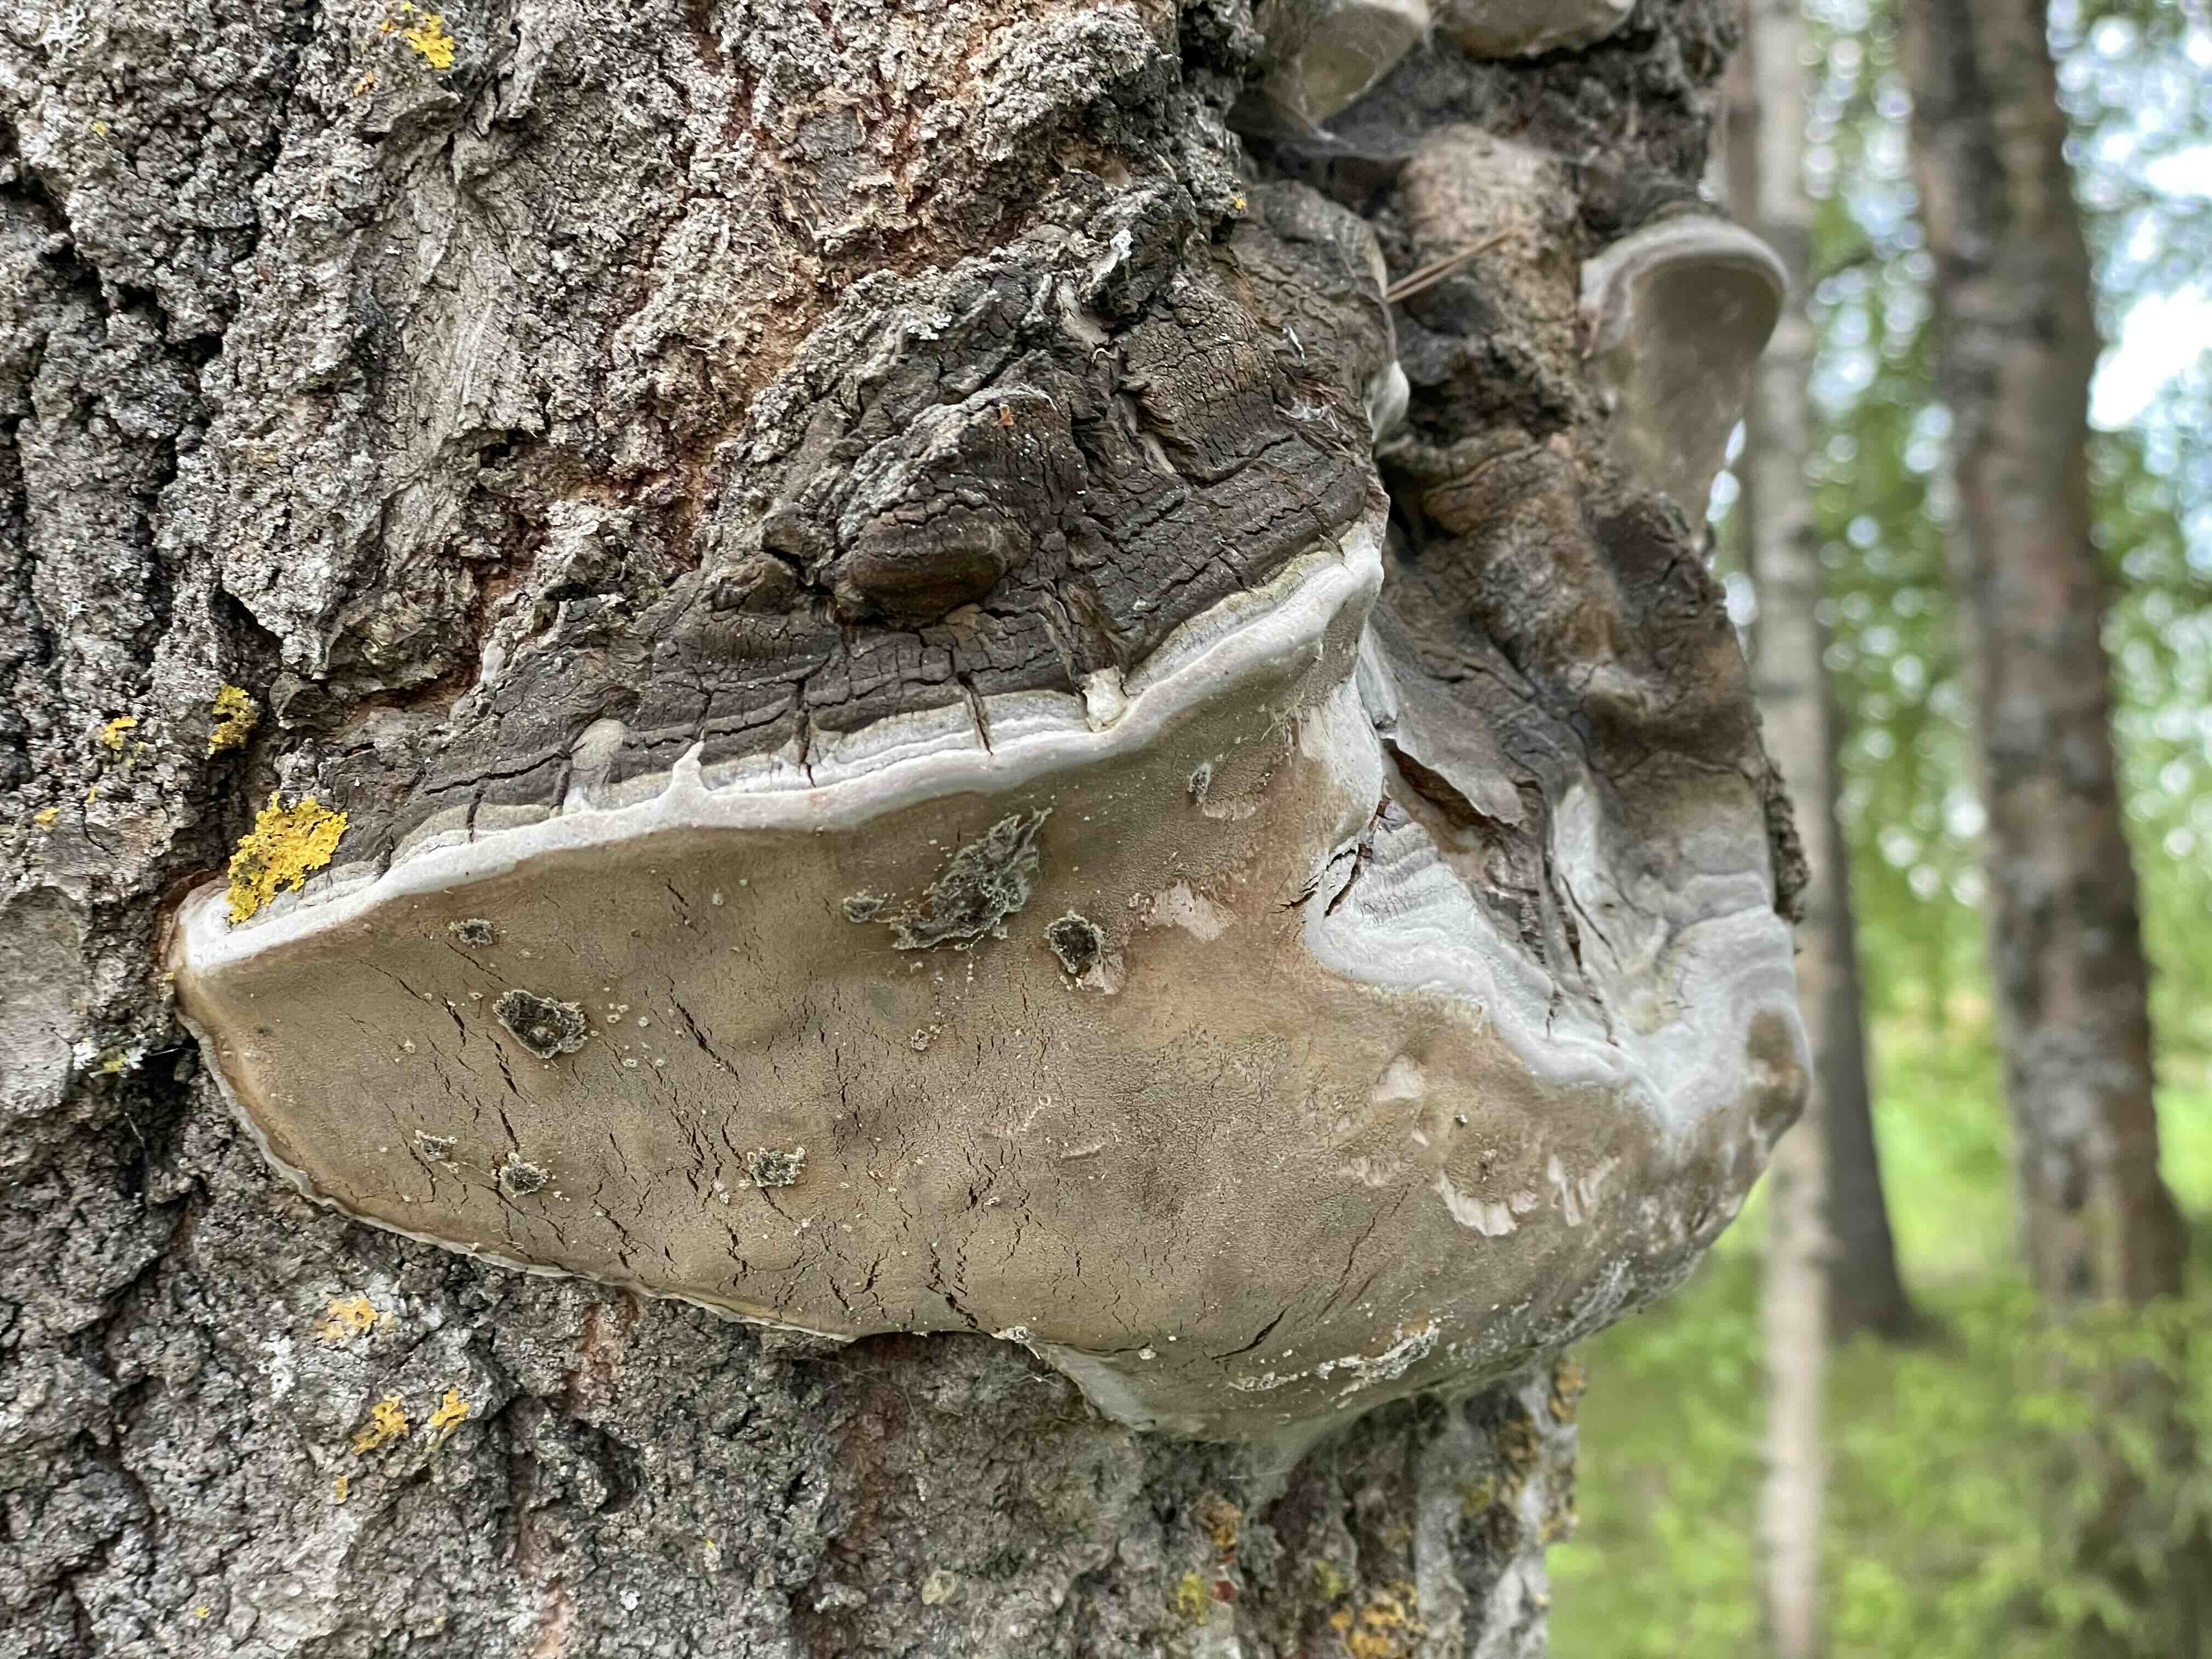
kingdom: Fungi
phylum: Basidiomycota
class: Agaricomycetes
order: Hymenochaetales
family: Hymenochaetaceae
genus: Phellinus
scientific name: Phellinus tremulae
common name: aspe-ildporesvamp
